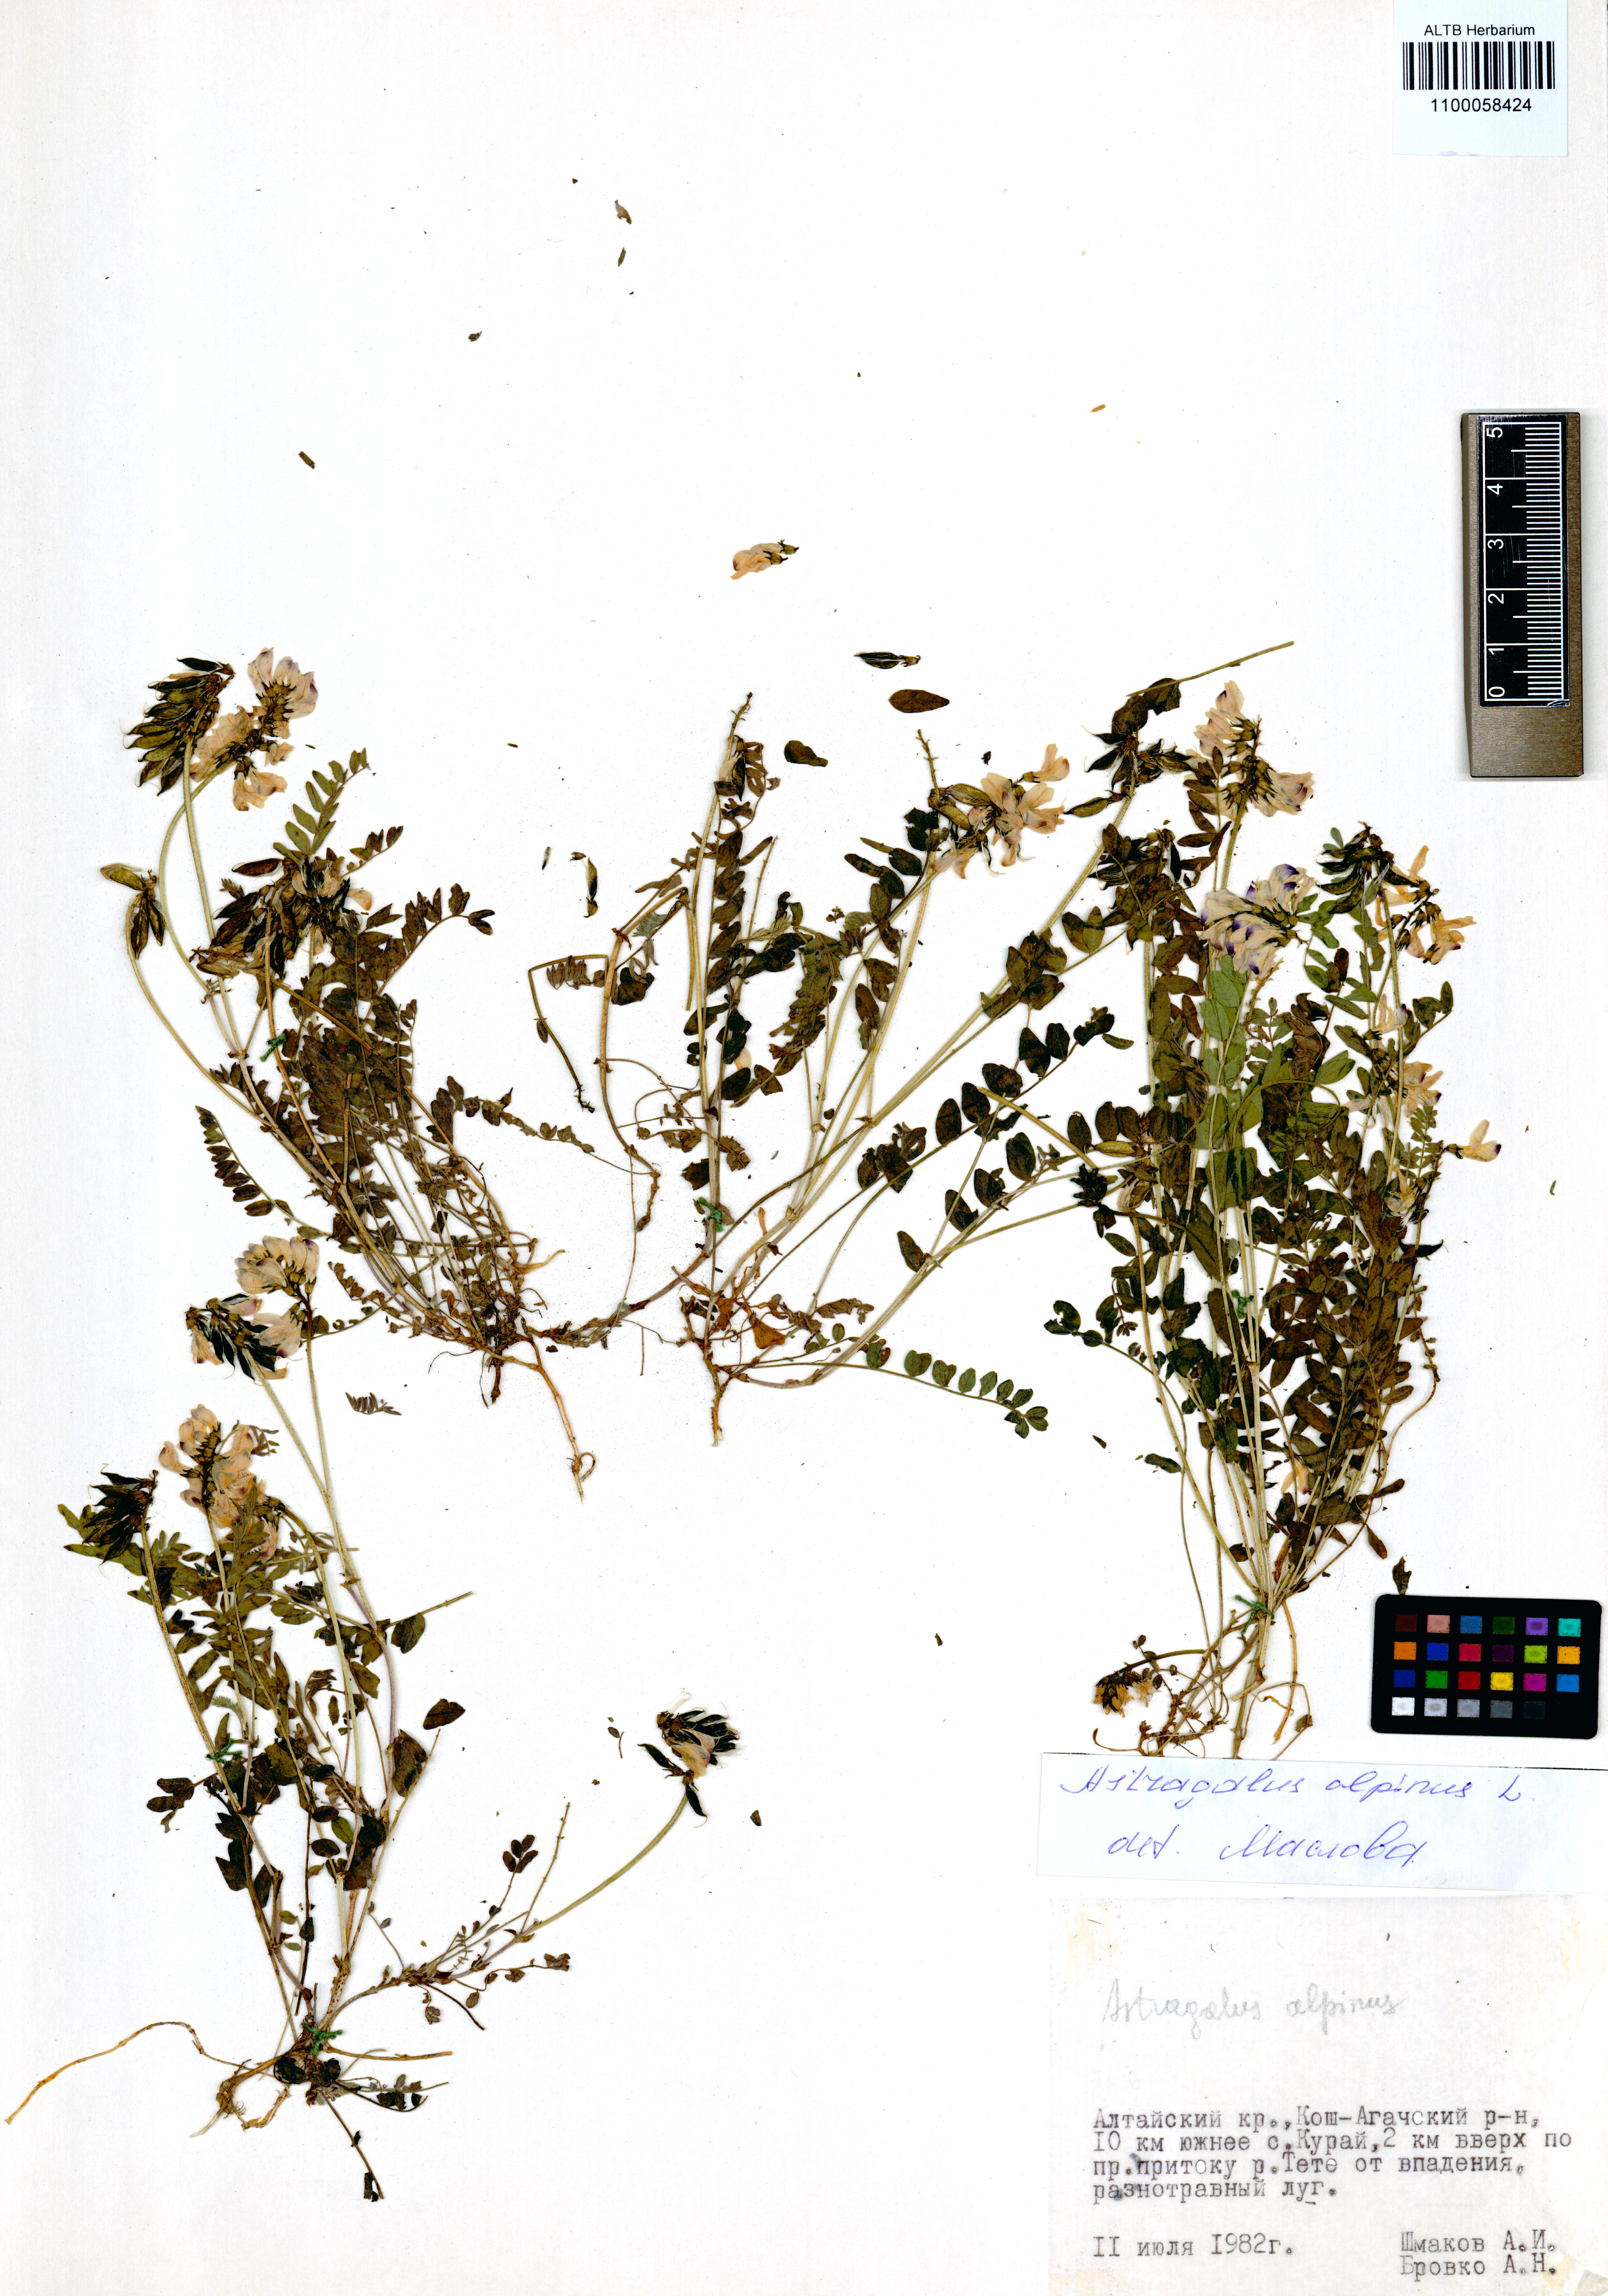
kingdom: Plantae
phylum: Tracheophyta
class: Magnoliopsida
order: Fabales
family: Fabaceae
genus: Astragalus
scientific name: Astragalus alpinus
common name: Alpine milk-vetch
